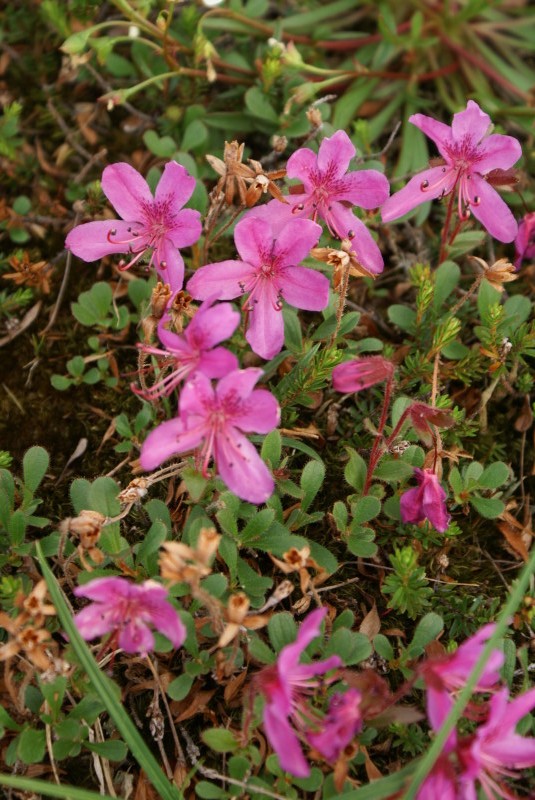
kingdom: Plantae
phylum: Tracheophyta
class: Magnoliopsida
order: Ericales
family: Ericaceae
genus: Rhododendron
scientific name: Rhododendron camtschaticum
